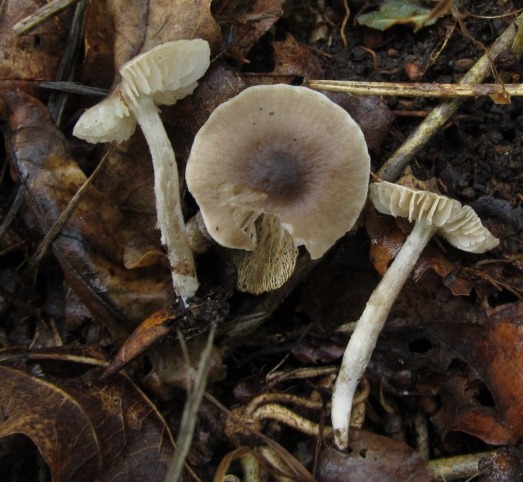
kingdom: Fungi
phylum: Basidiomycota
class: Agaricomycetes
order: Agaricales
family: Tricholomataceae
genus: Dermoloma
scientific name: Dermoloma cuneifolium
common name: eng-nonnehat
